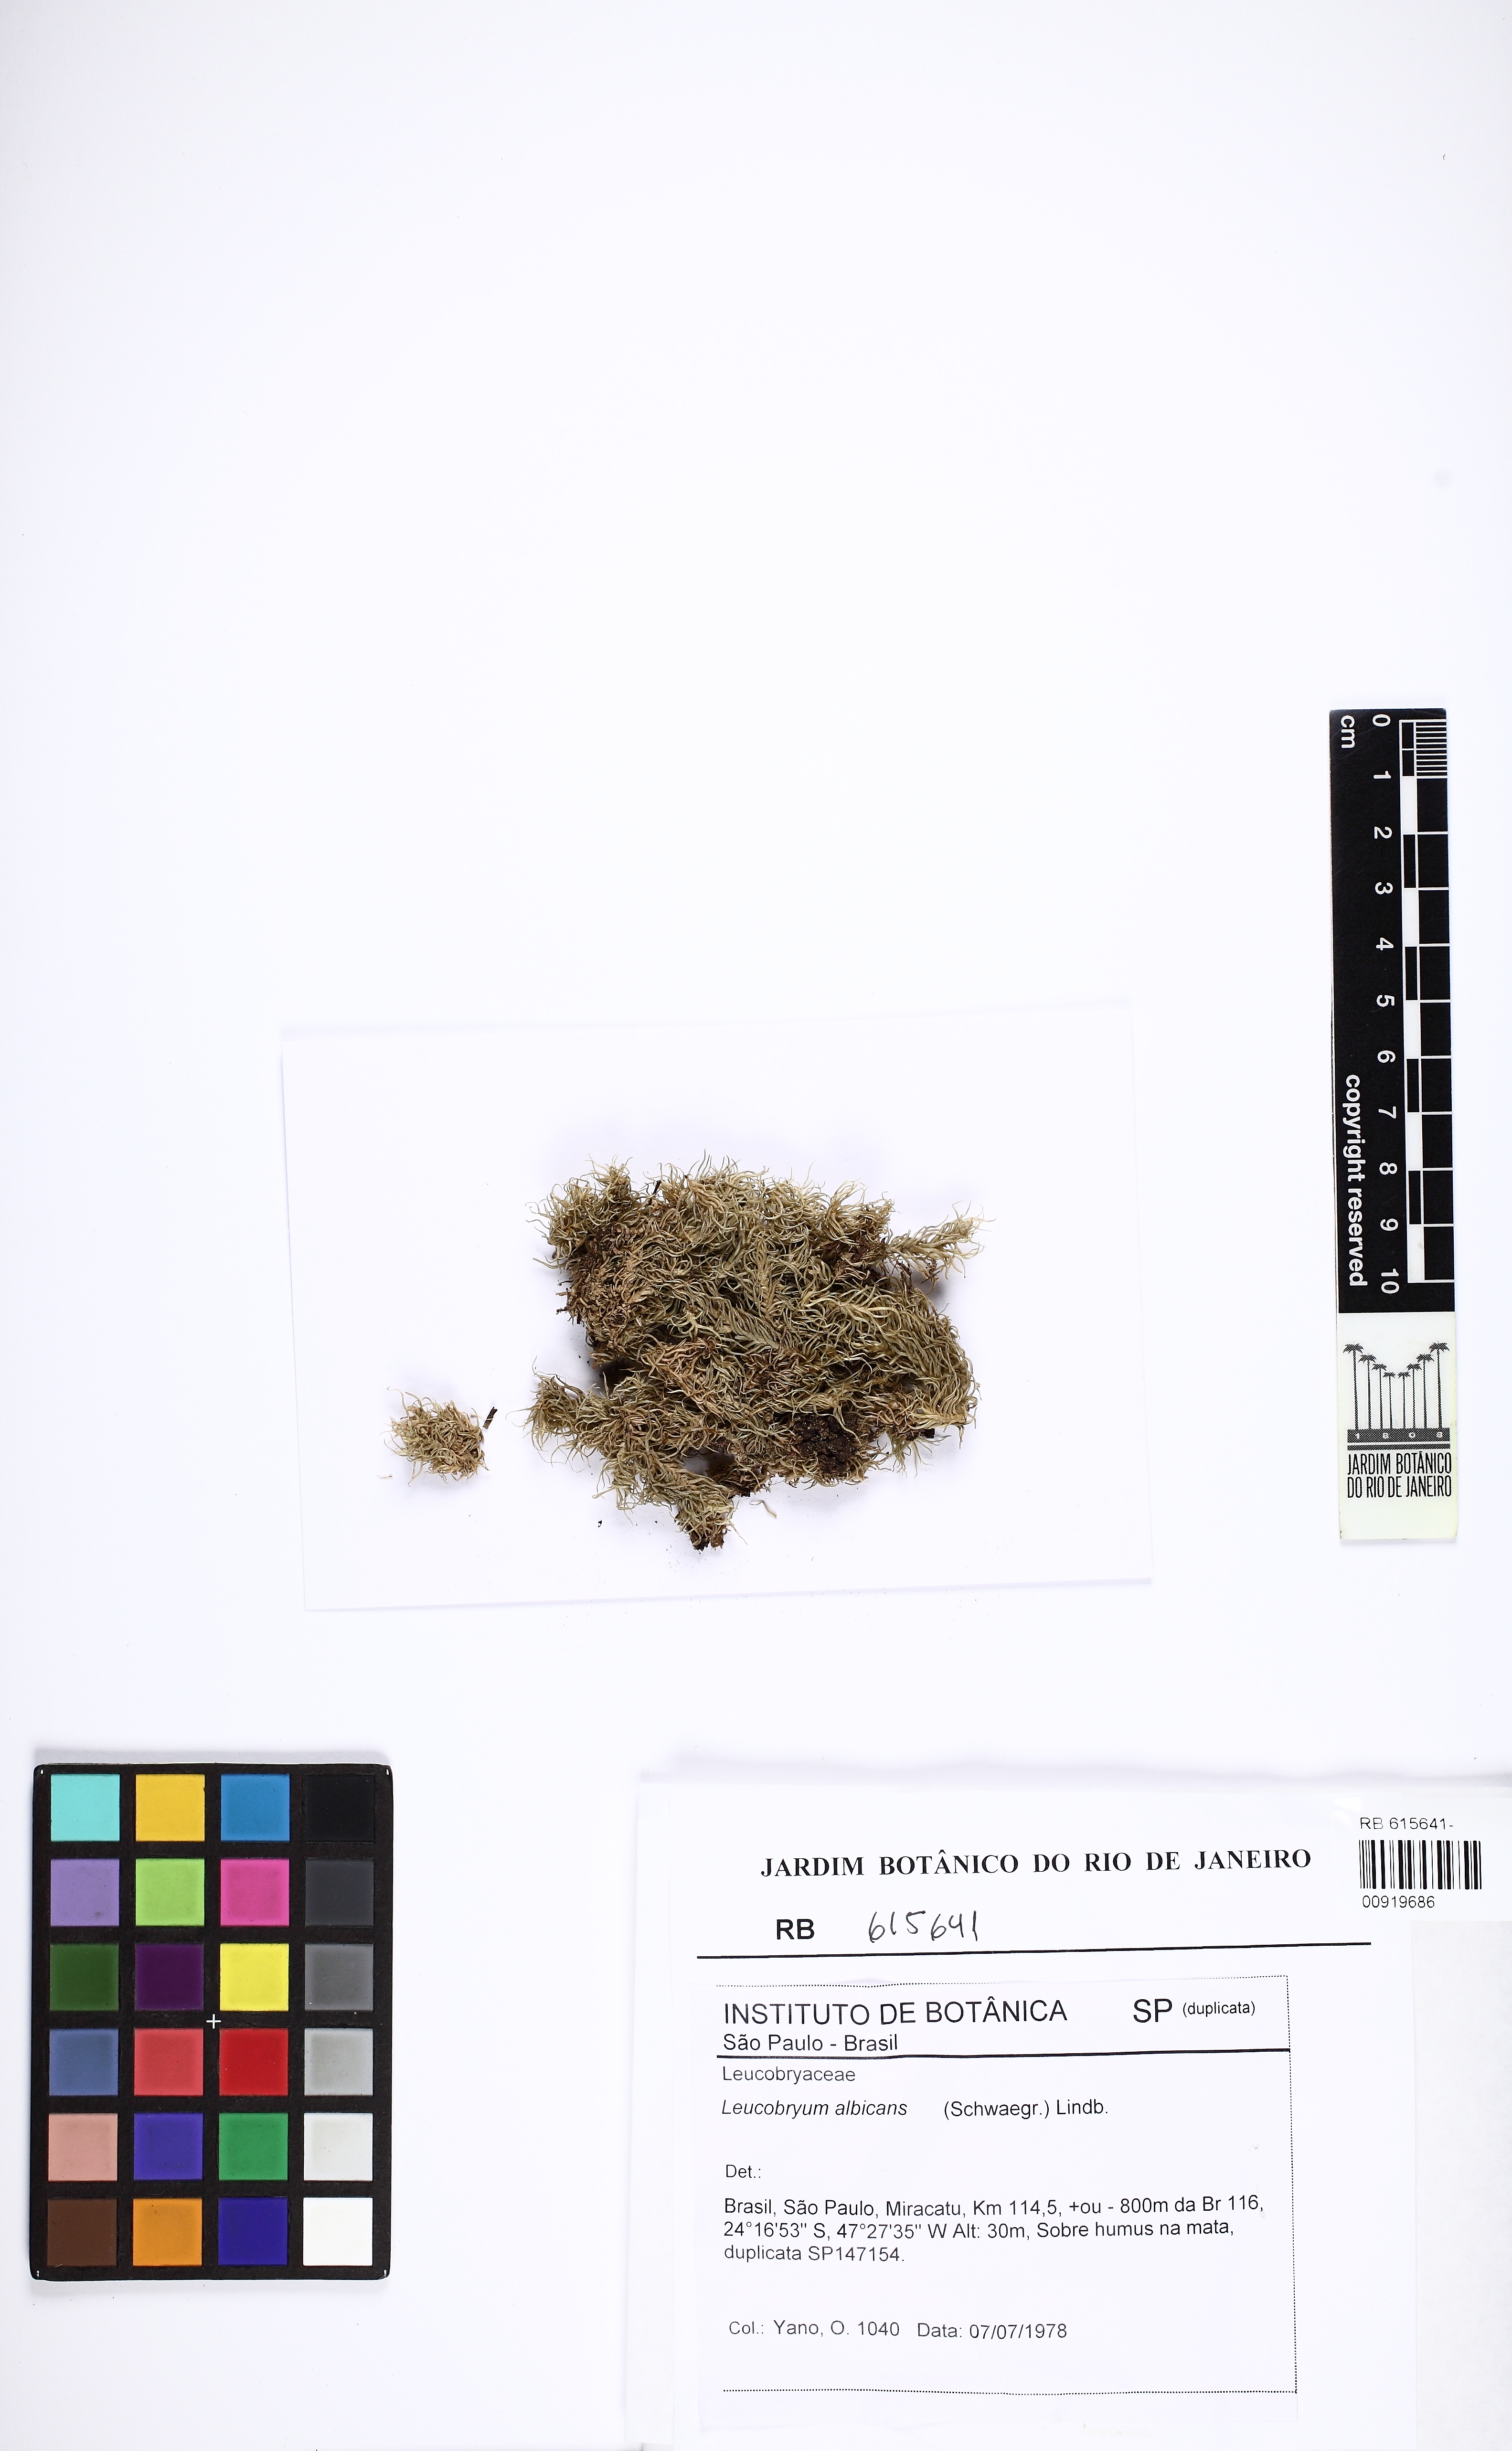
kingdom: Plantae
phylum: Bryophyta
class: Bryopsida
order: Dicranales
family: Leucobryaceae
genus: Leucobryum
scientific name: Leucobryum albicans
